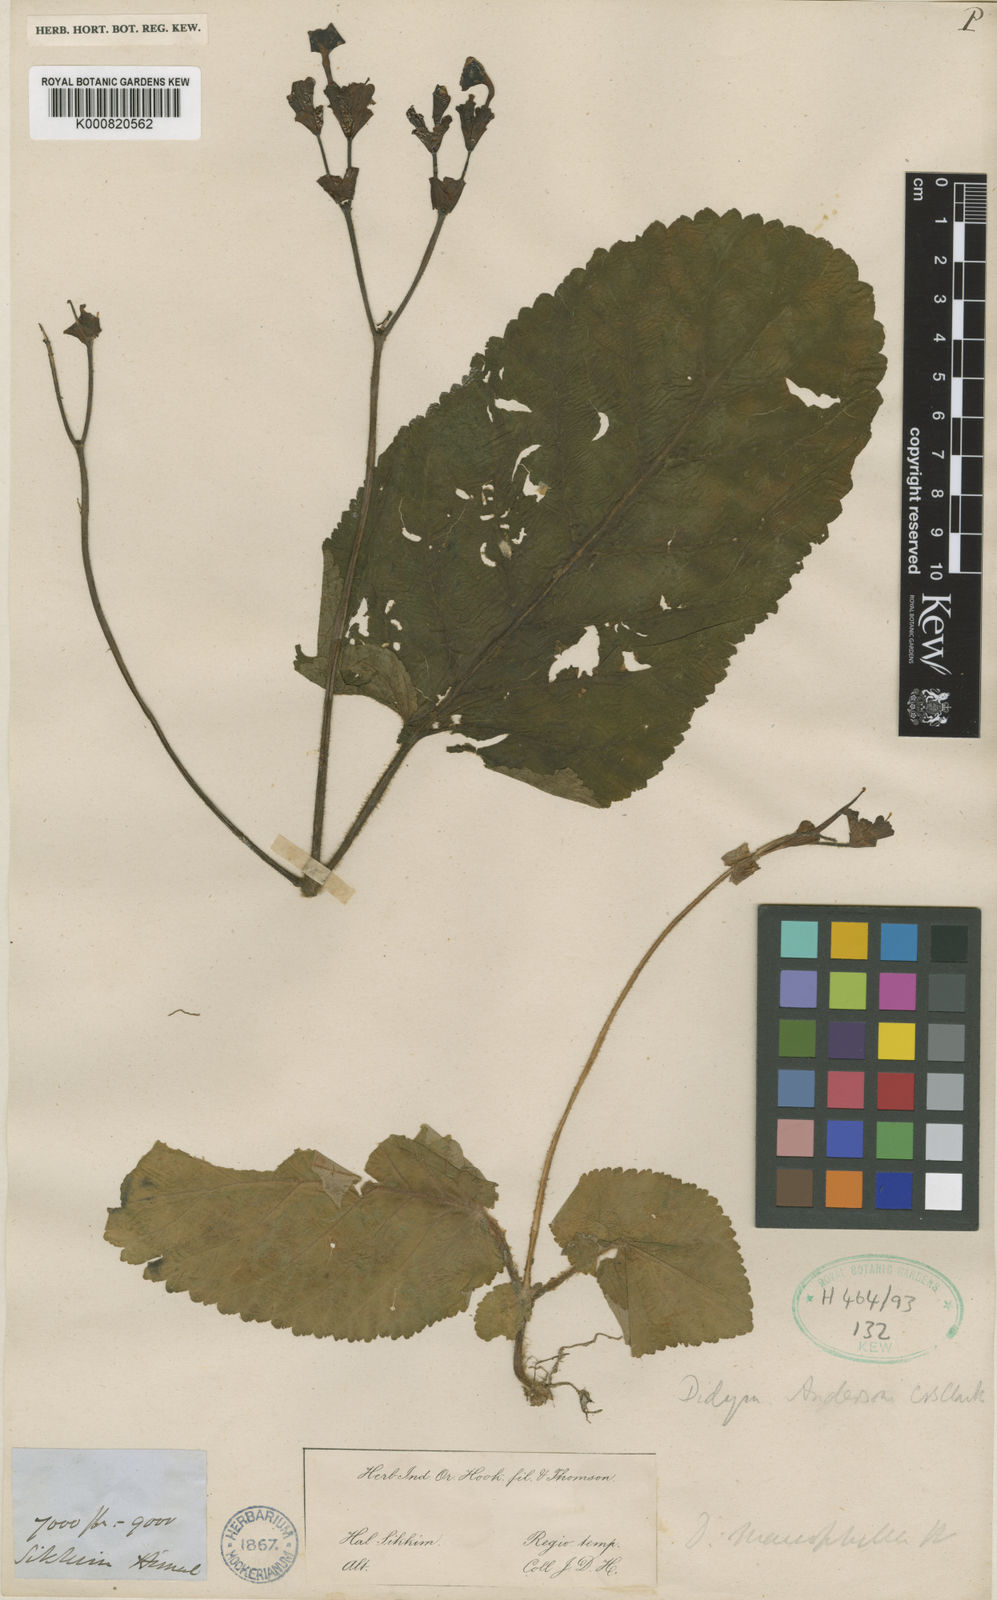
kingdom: Plantae
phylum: Tracheophyta
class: Magnoliopsida
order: Lamiales
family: Gesneriaceae
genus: Didymocarpus
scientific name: Didymocarpus andersonii
